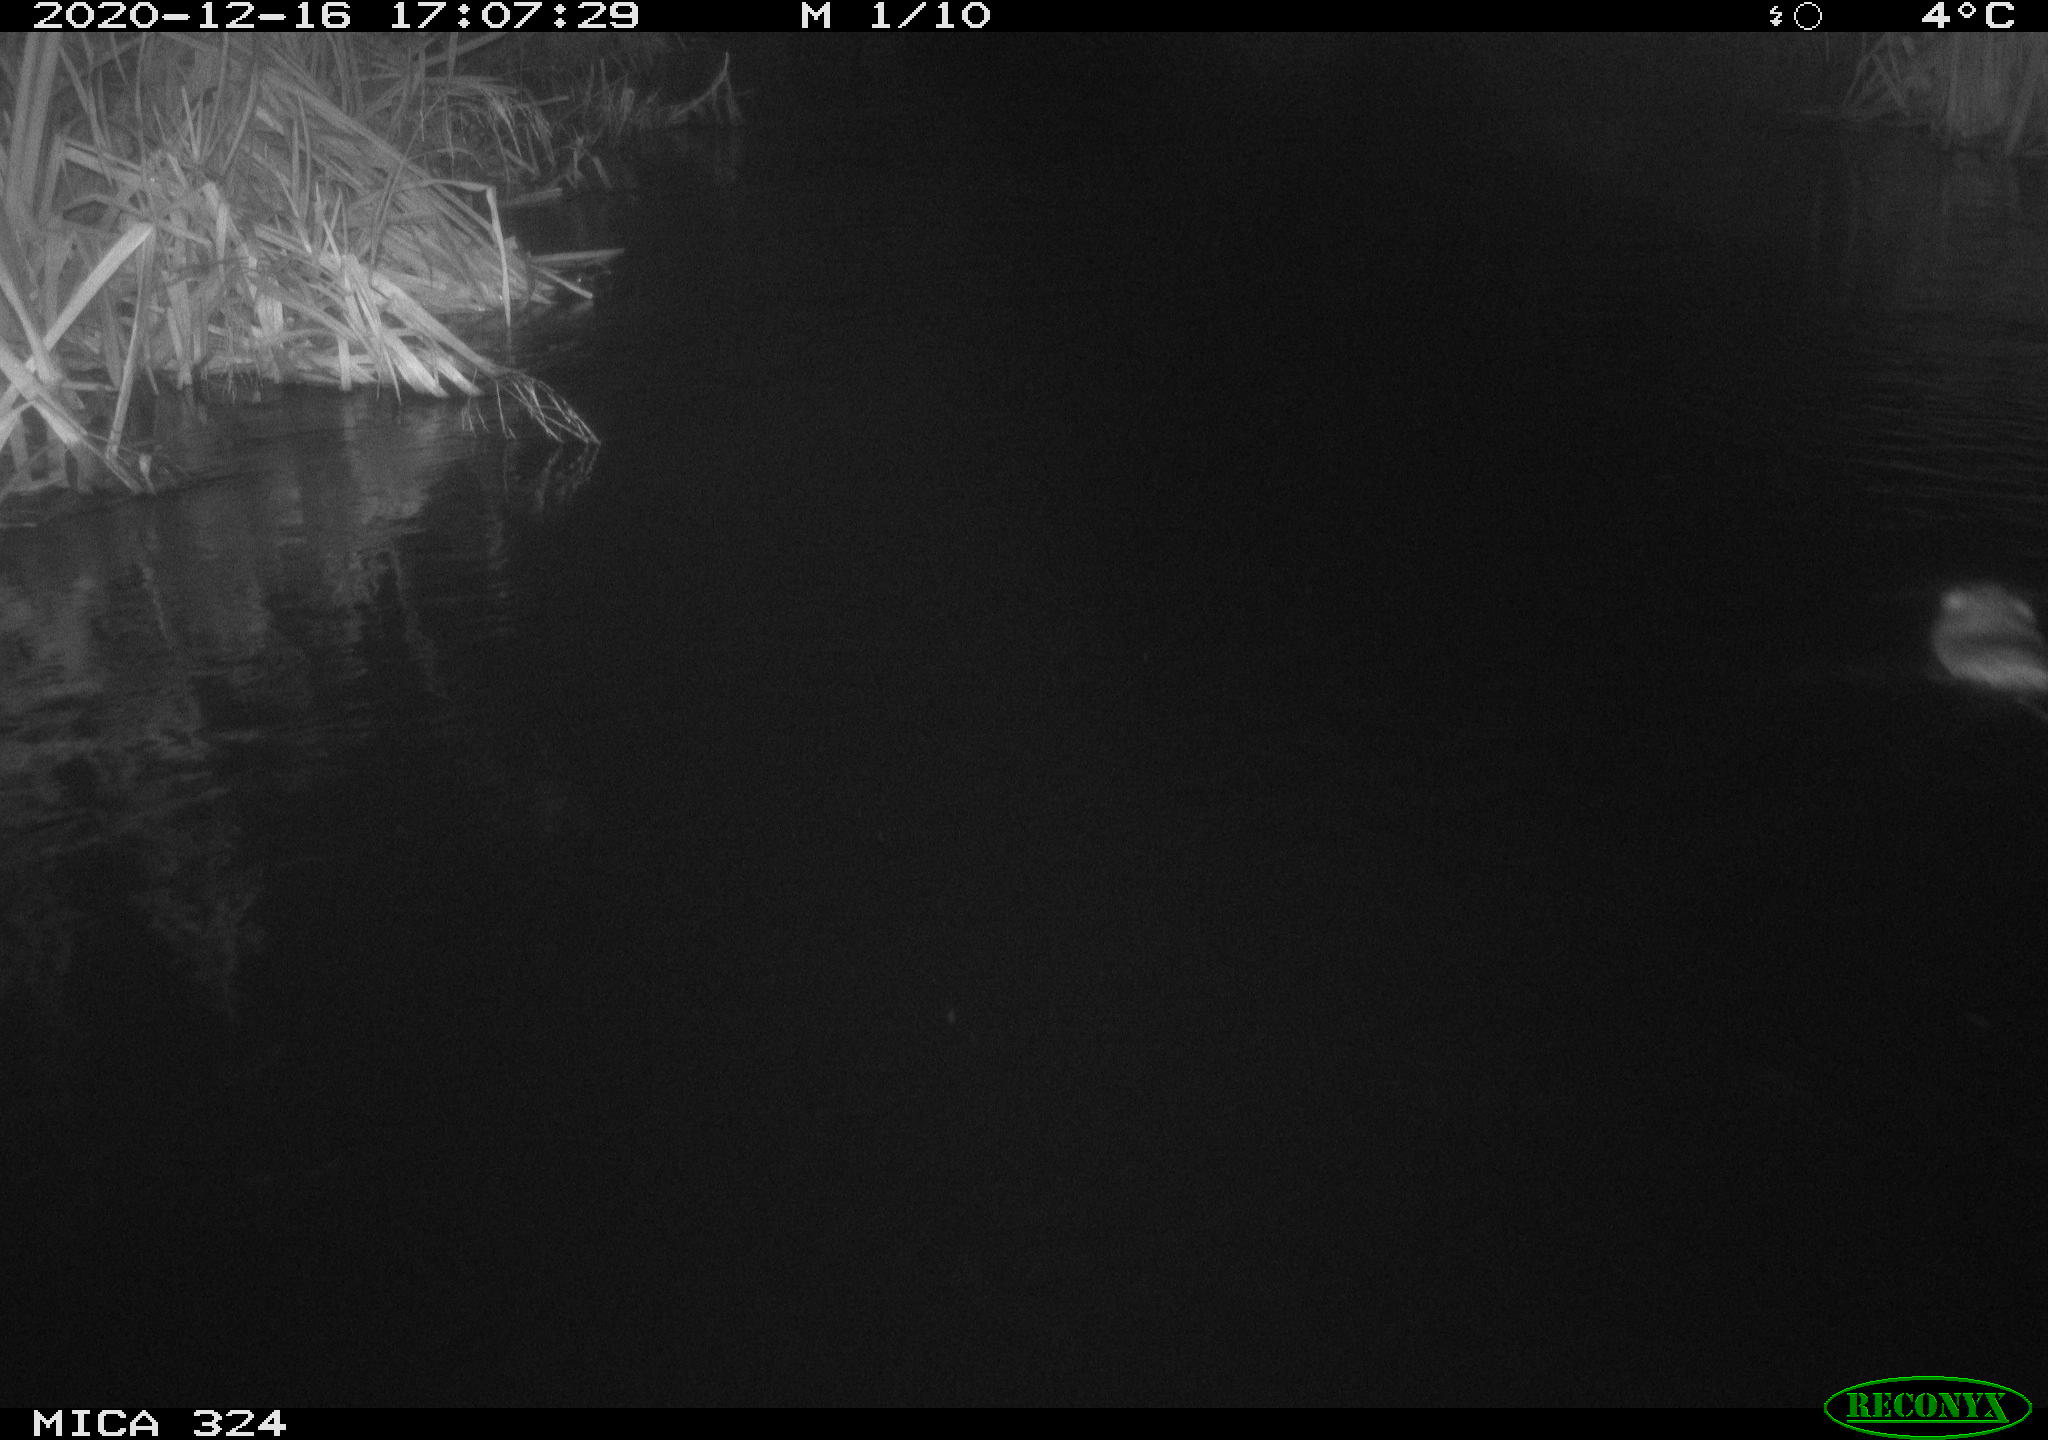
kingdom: Animalia
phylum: Chordata
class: Mammalia
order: Rodentia
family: Cricetidae
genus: Ondatra
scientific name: Ondatra zibethicus
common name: Muskrat
